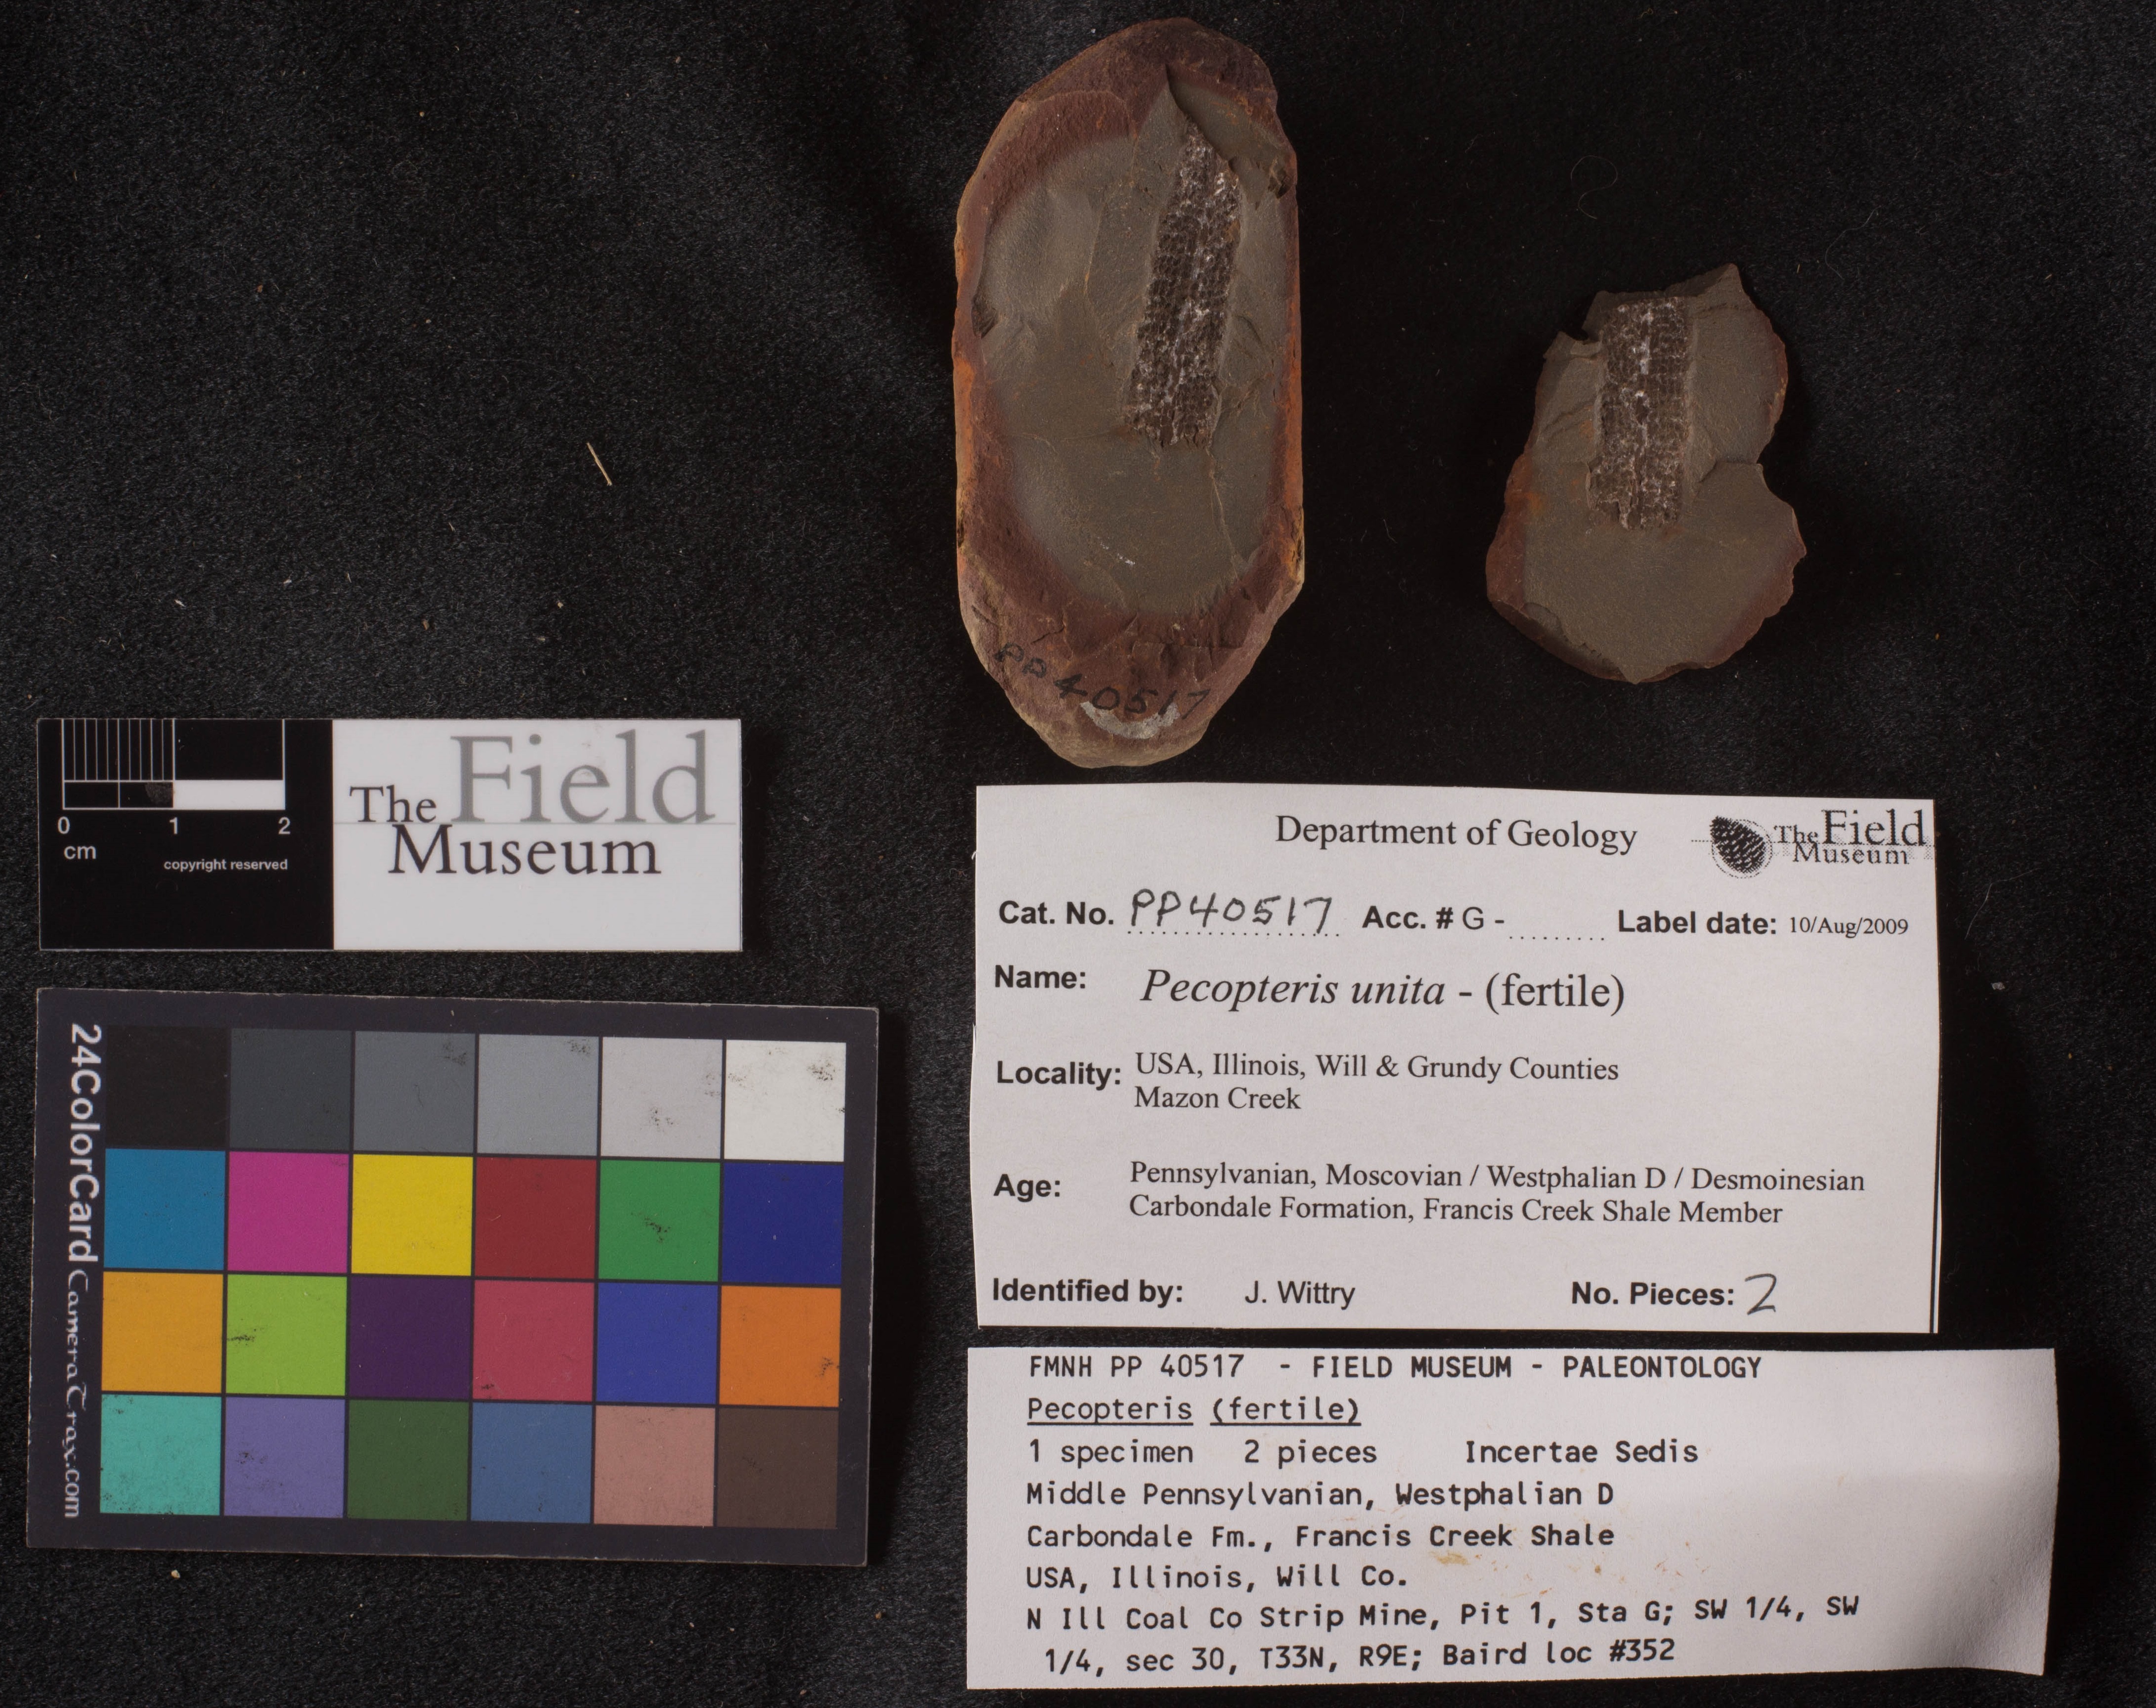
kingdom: Plantae
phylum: Tracheophyta
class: Polypodiopsida
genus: Diplazites
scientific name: Diplazites
